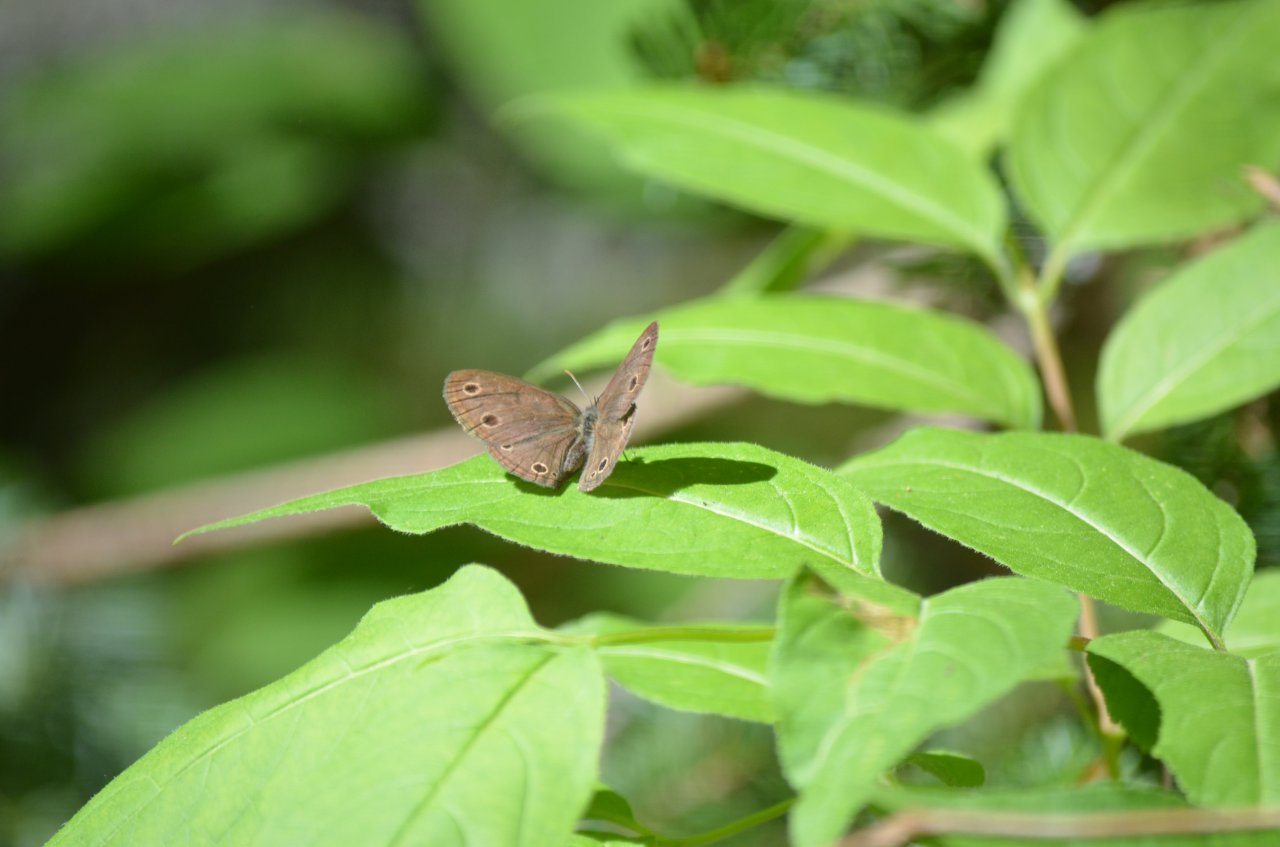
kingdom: Animalia
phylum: Arthropoda
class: Insecta
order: Lepidoptera
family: Nymphalidae
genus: Euptychia
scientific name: Euptychia cymela
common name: Little Wood Satyr
